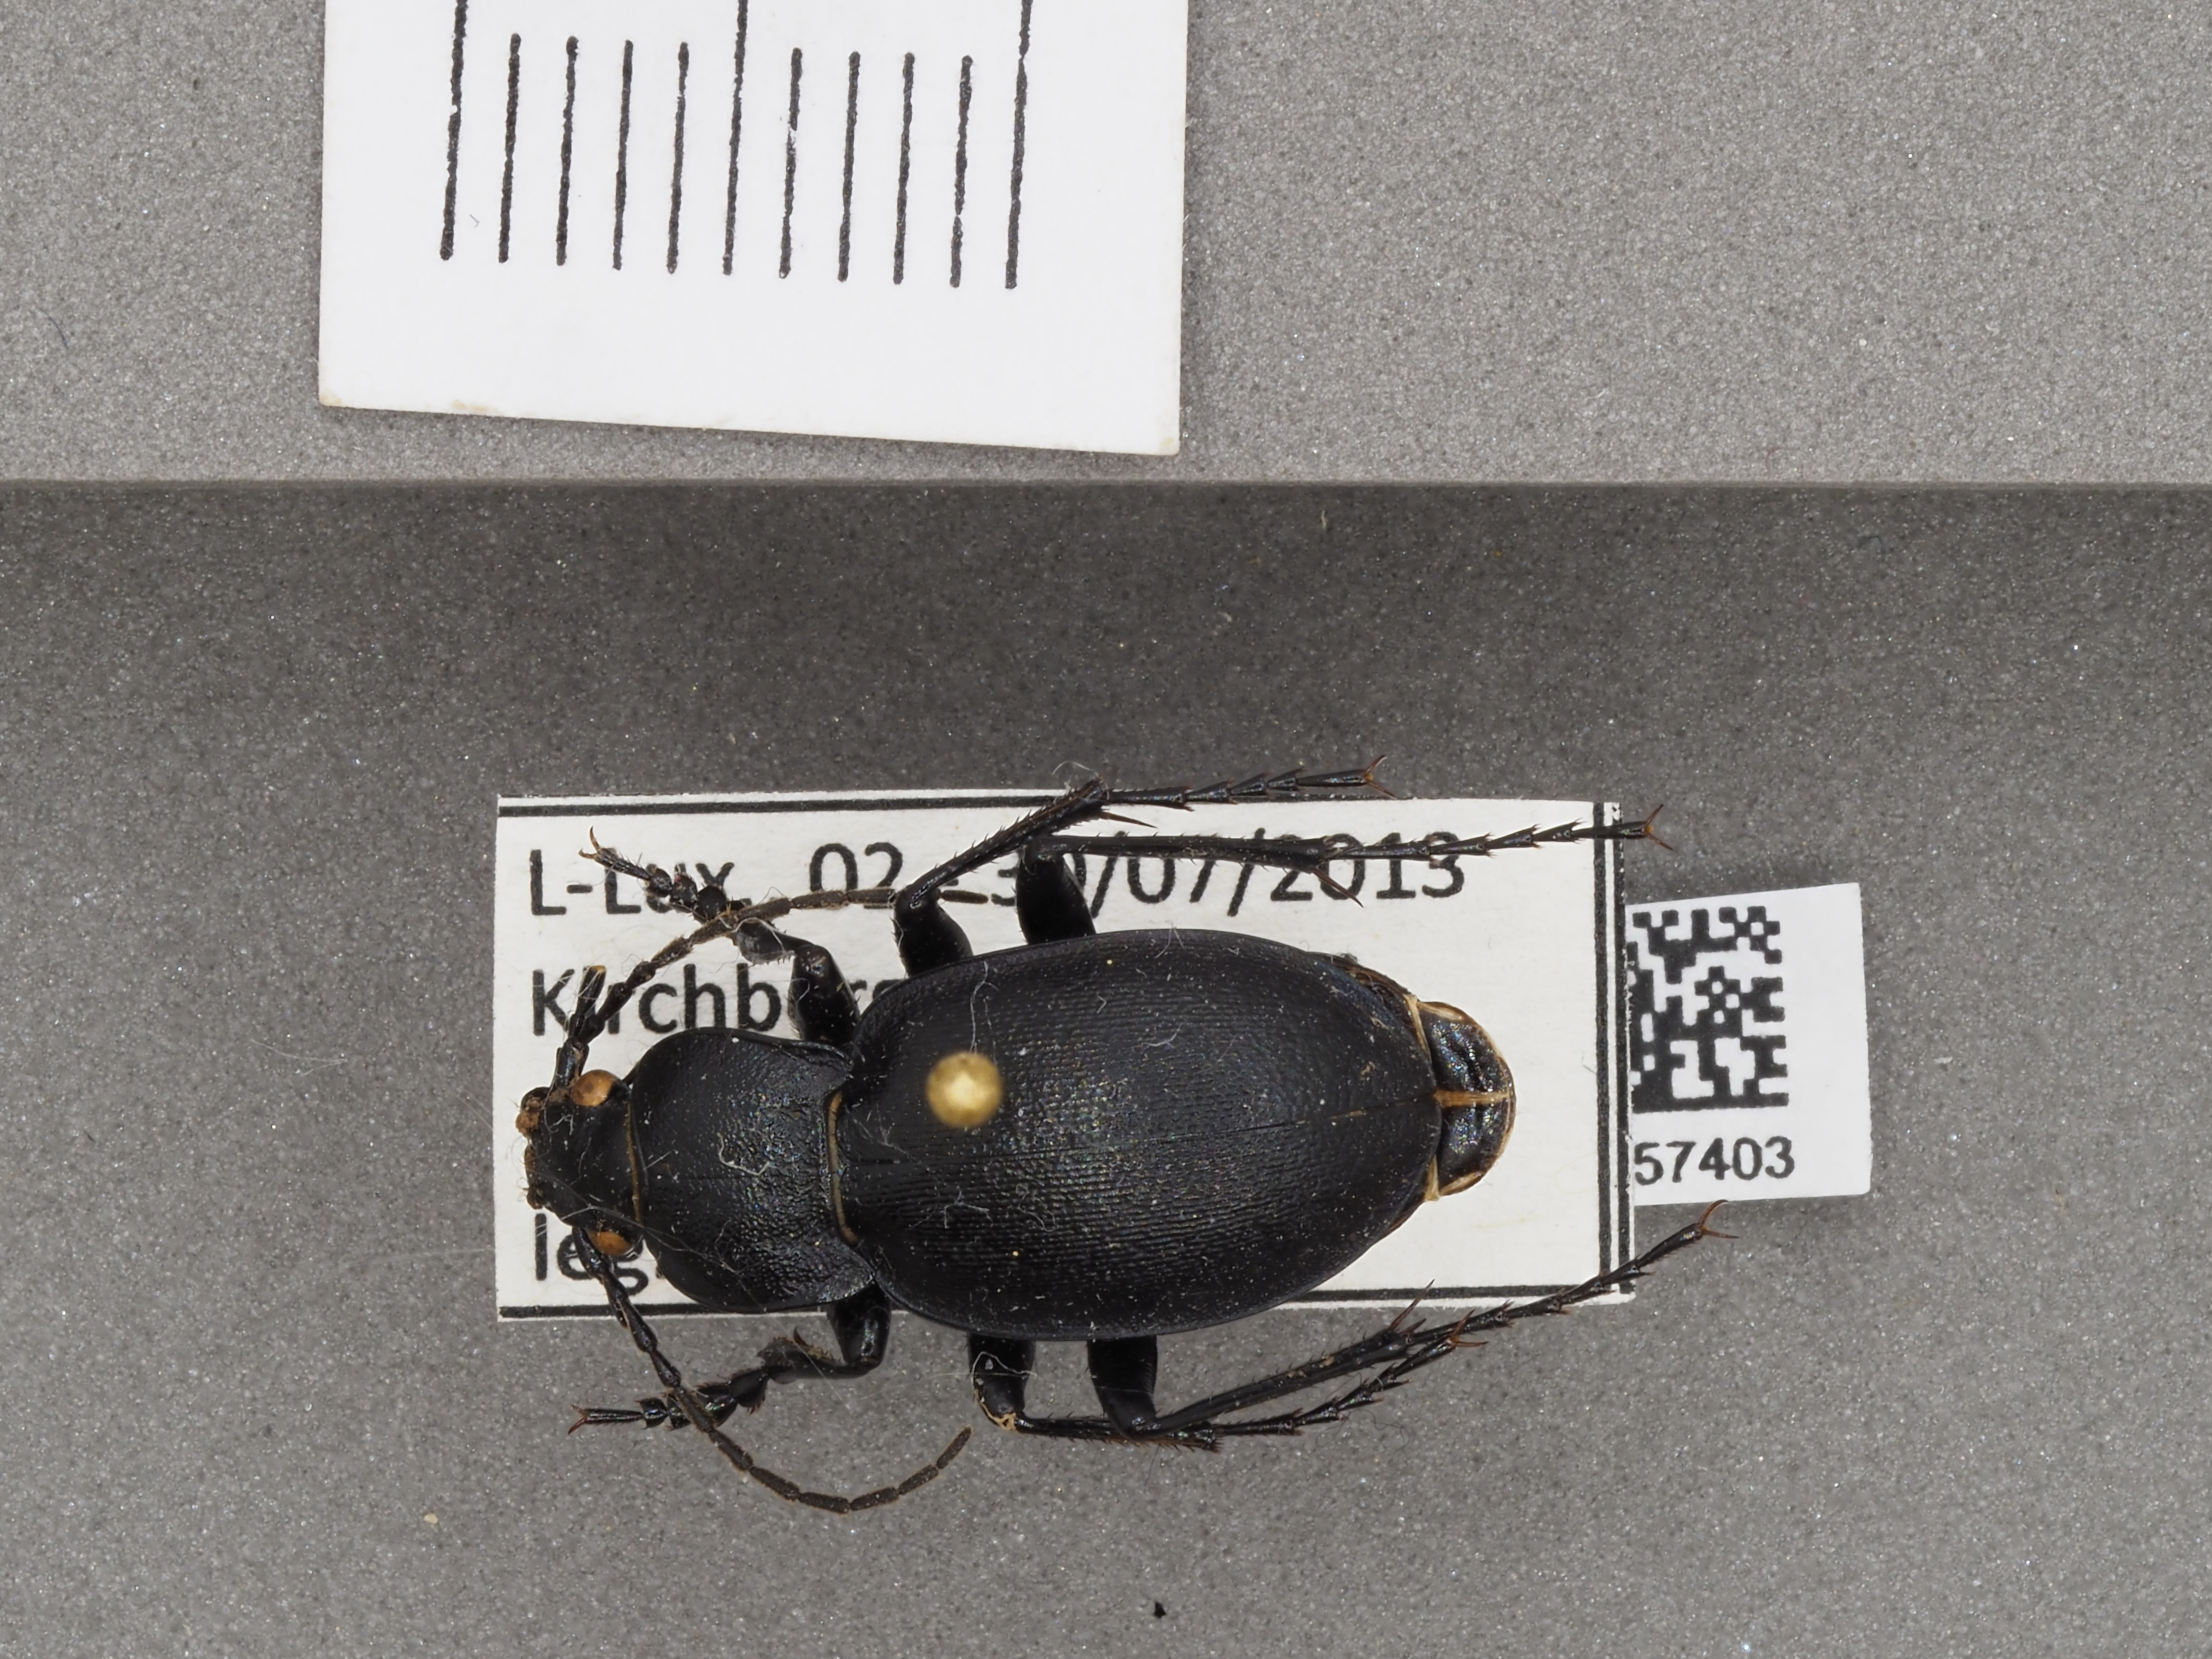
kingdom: Animalia
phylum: Arthropoda
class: Insecta
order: Coleoptera
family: Carabidae
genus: Carabus
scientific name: Carabus convexus
